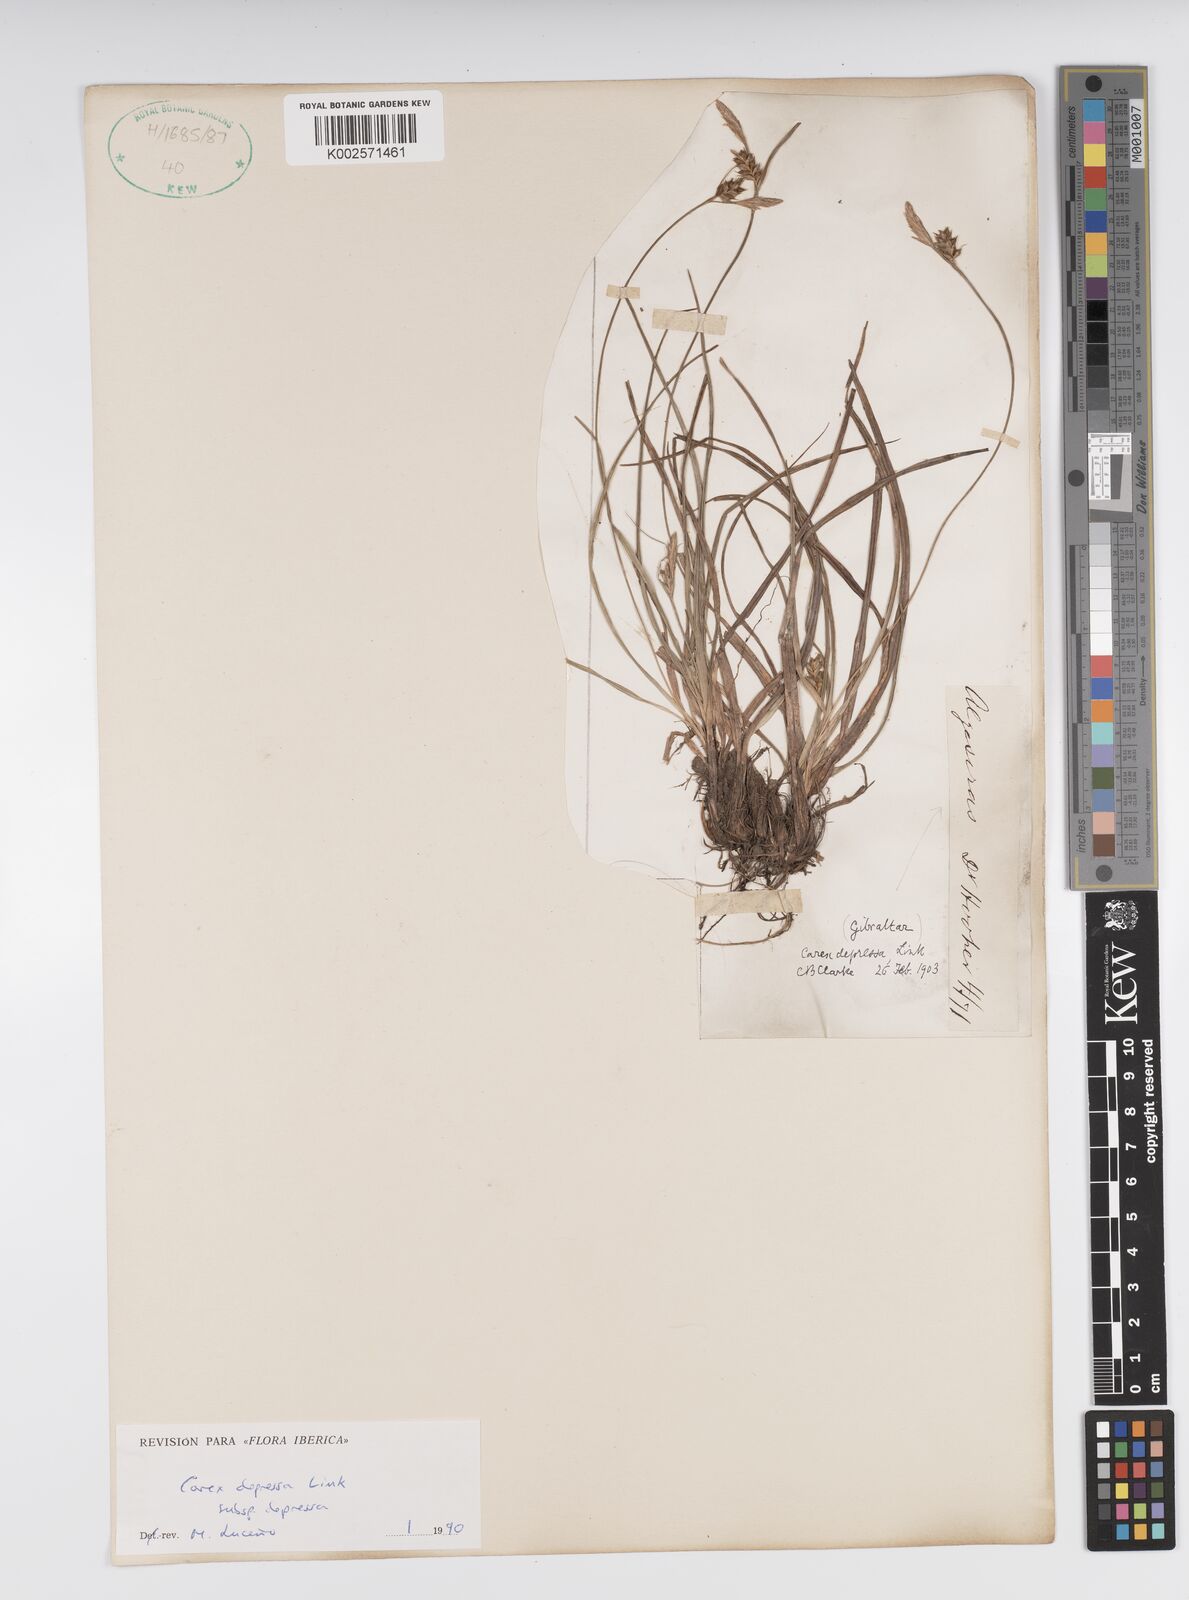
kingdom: Plantae
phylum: Tracheophyta
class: Liliopsida
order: Poales
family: Cyperaceae
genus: Carex
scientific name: Carex depressa
